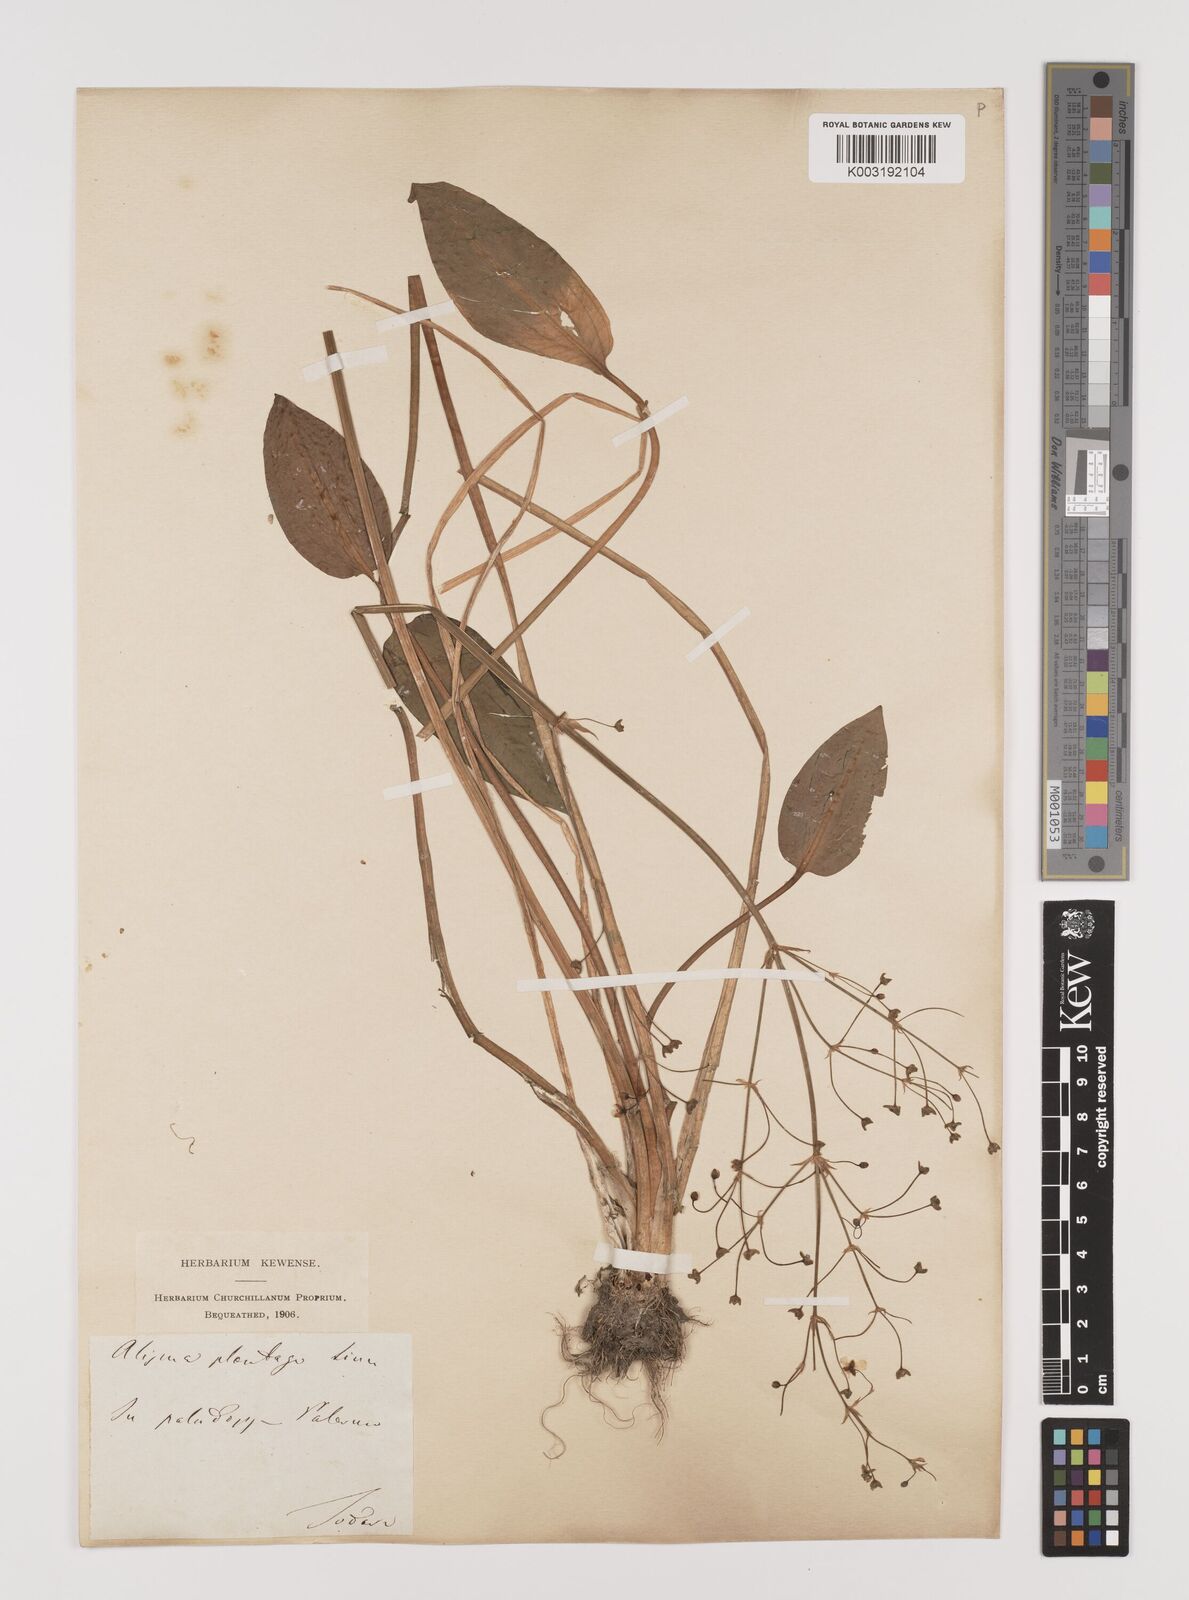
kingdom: Plantae
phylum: Tracheophyta
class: Liliopsida
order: Alismatales
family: Alismataceae
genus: Alisma
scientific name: Alisma plantago-aquatica
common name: Water-plantain
